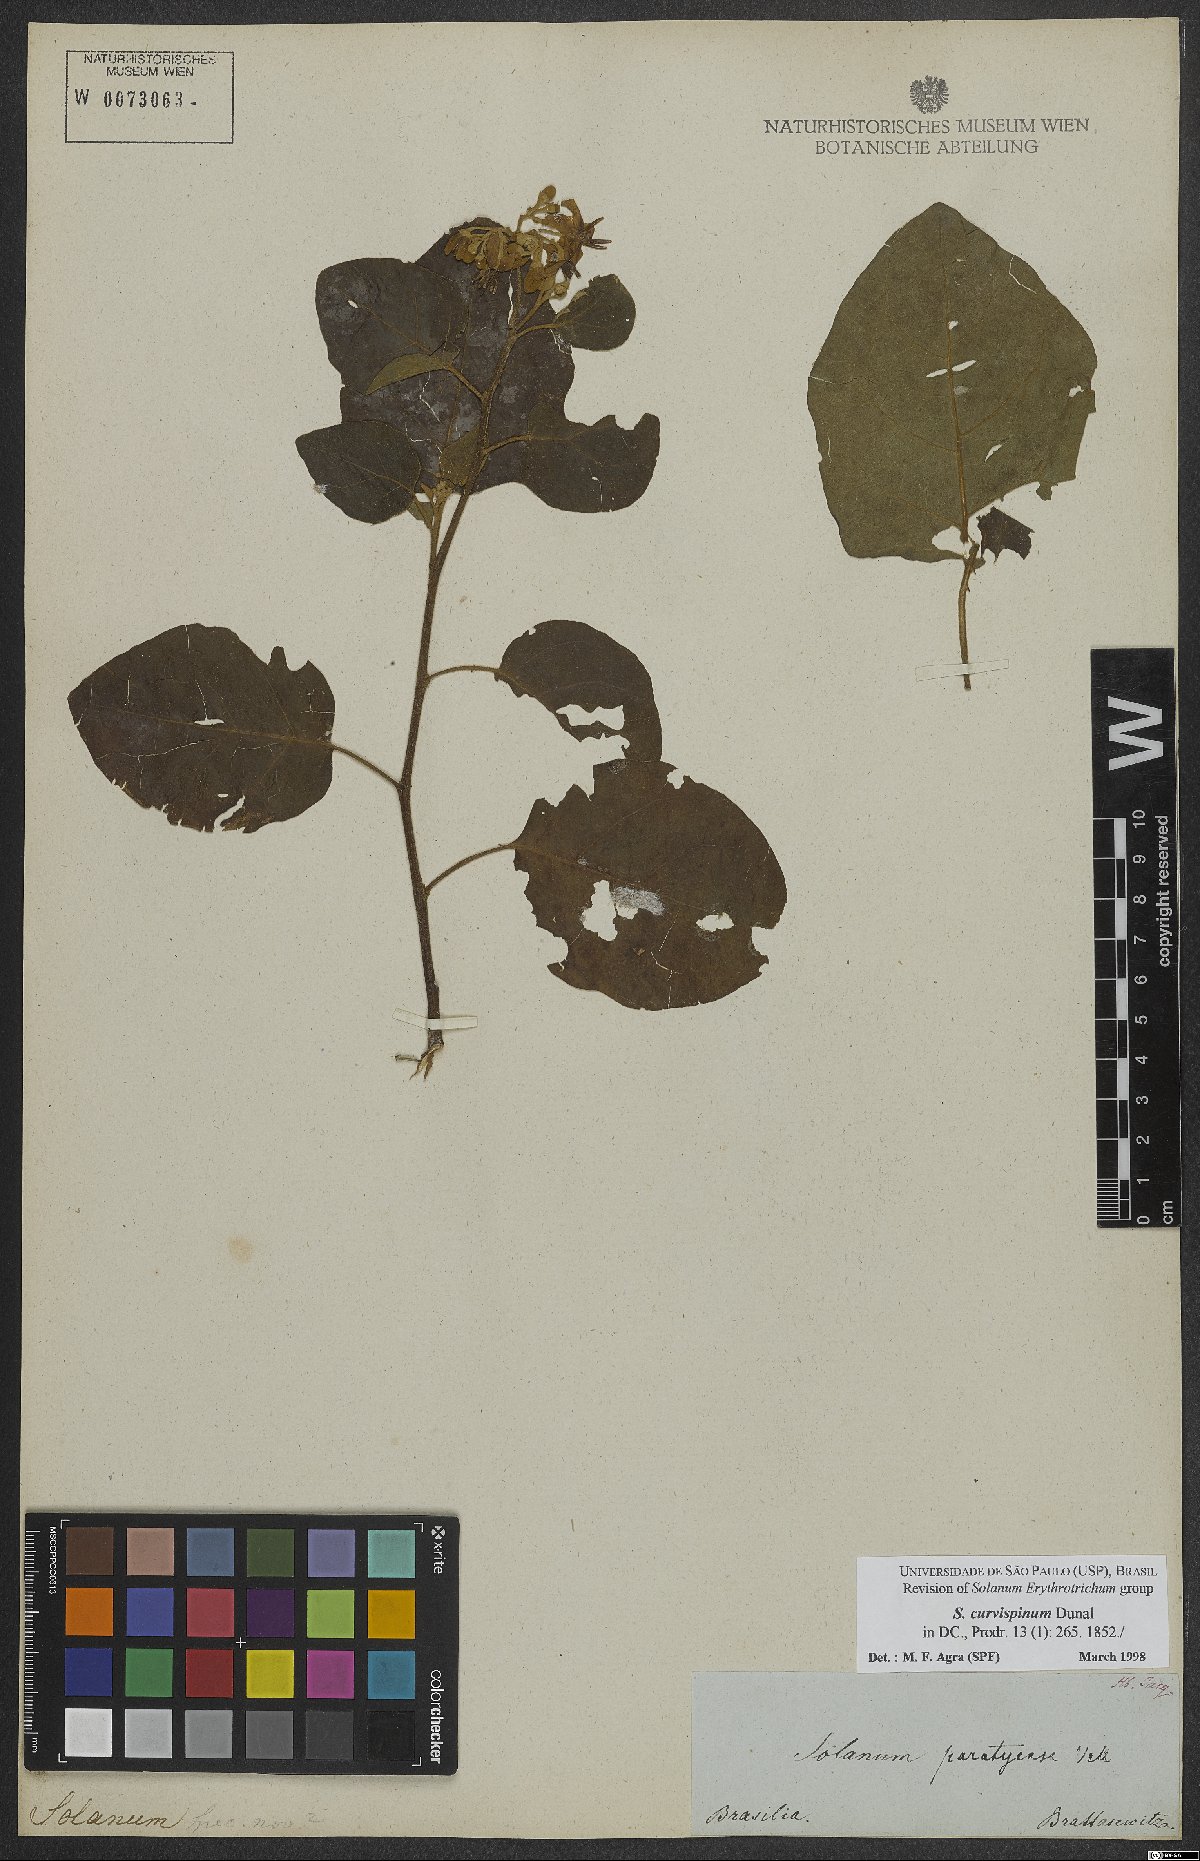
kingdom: Plantae
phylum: Tracheophyta
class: Magnoliopsida
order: Solanales
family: Solanaceae
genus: Solanum
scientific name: Solanum jussiaei
